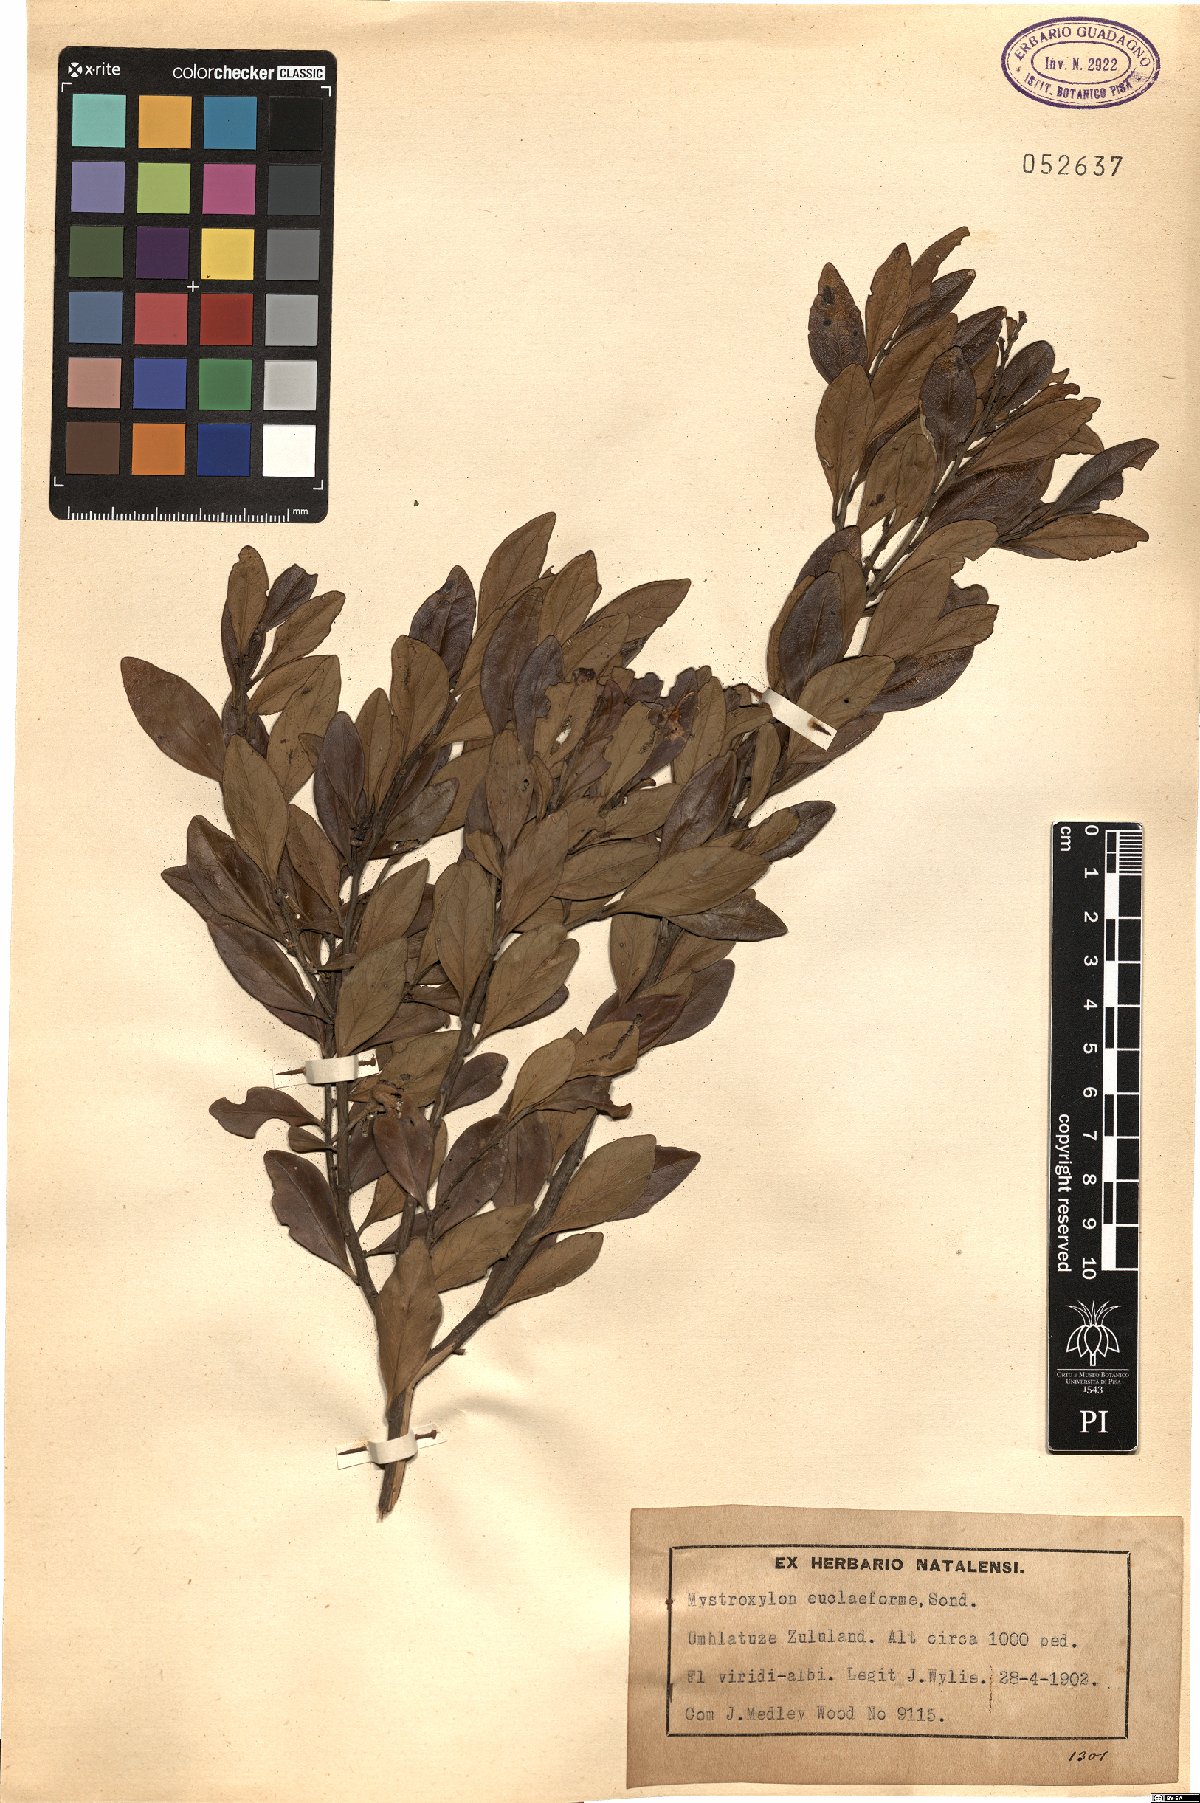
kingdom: Plantae
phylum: Tracheophyta
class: Magnoliopsida
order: Celastrales
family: Celastraceae
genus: Robsonodendron
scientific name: Robsonodendron eucleiforme
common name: Mock silky-bark
